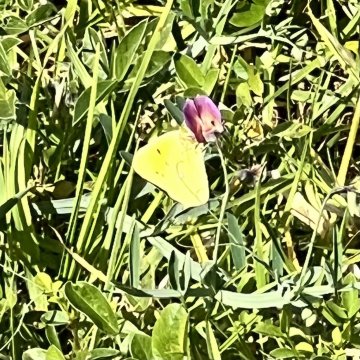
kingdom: Animalia
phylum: Arthropoda
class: Insecta
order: Lepidoptera
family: Pieridae
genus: Colias
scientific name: Colias croceus
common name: Clouded Yellow
